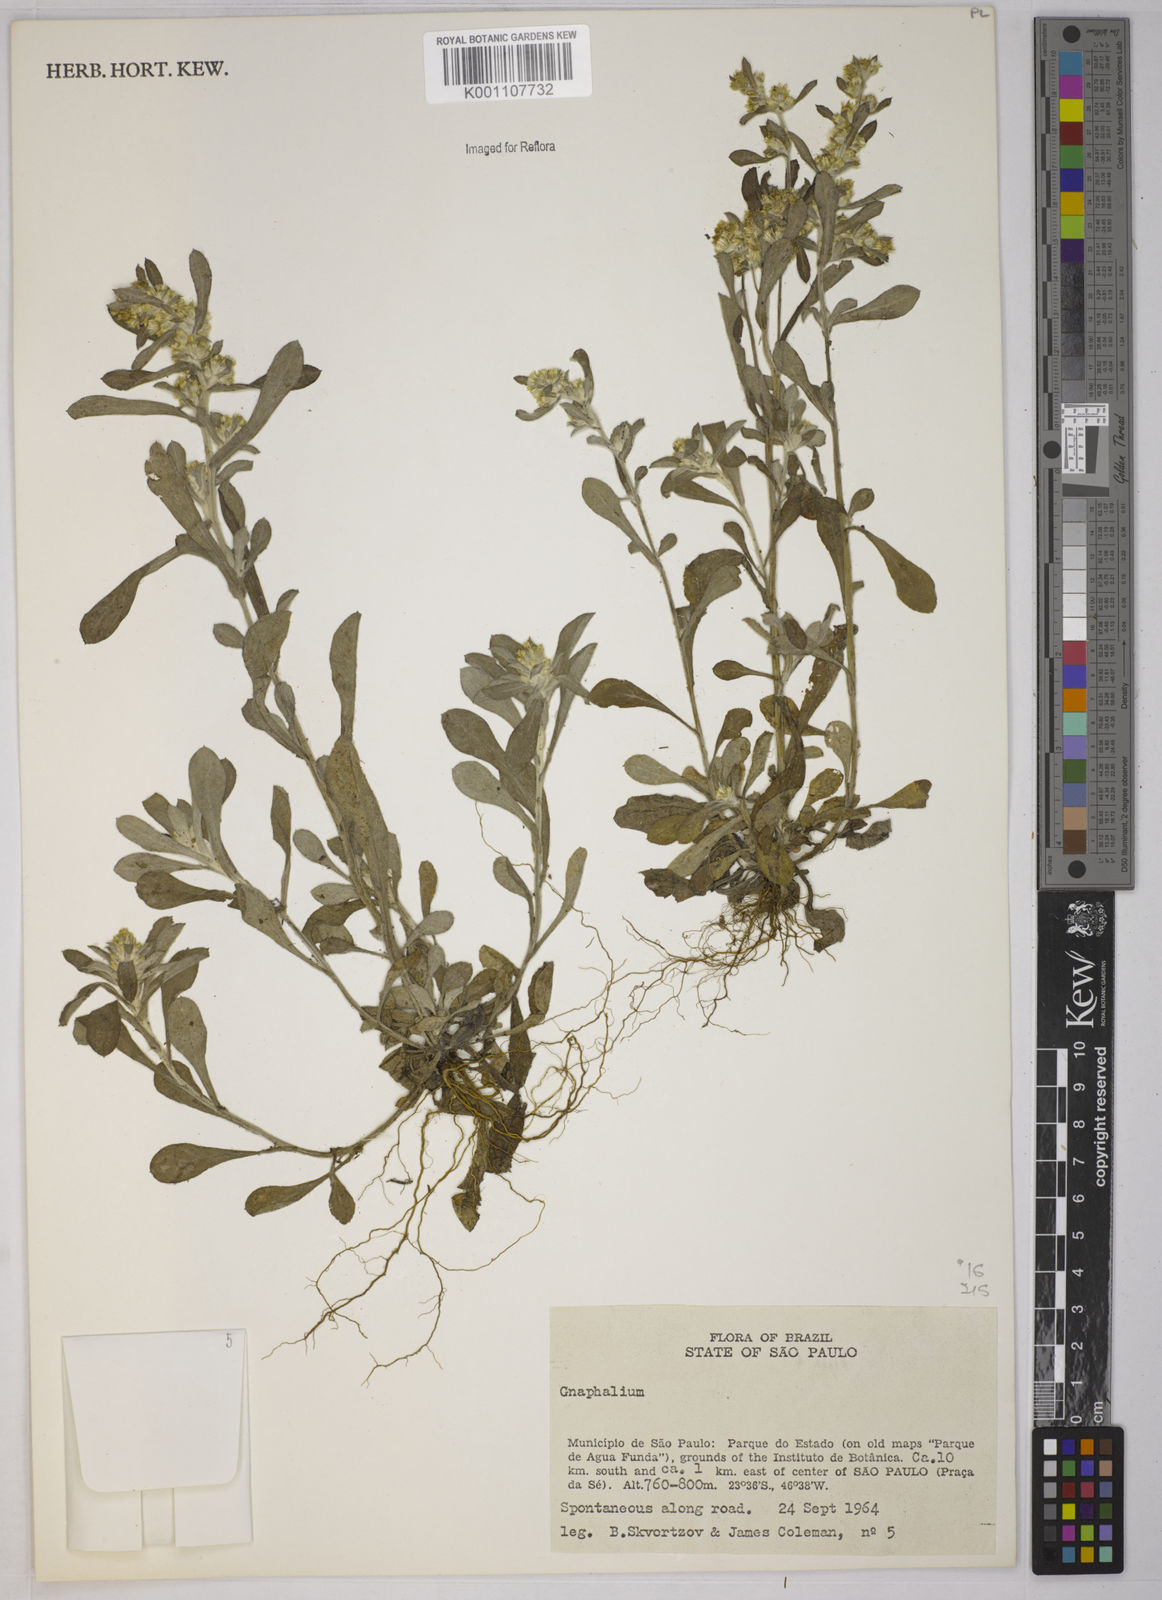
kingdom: Plantae
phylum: Tracheophyta
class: Magnoliopsida
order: Asterales
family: Asteraceae
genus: Gnaphalium
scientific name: Gnaphalium
